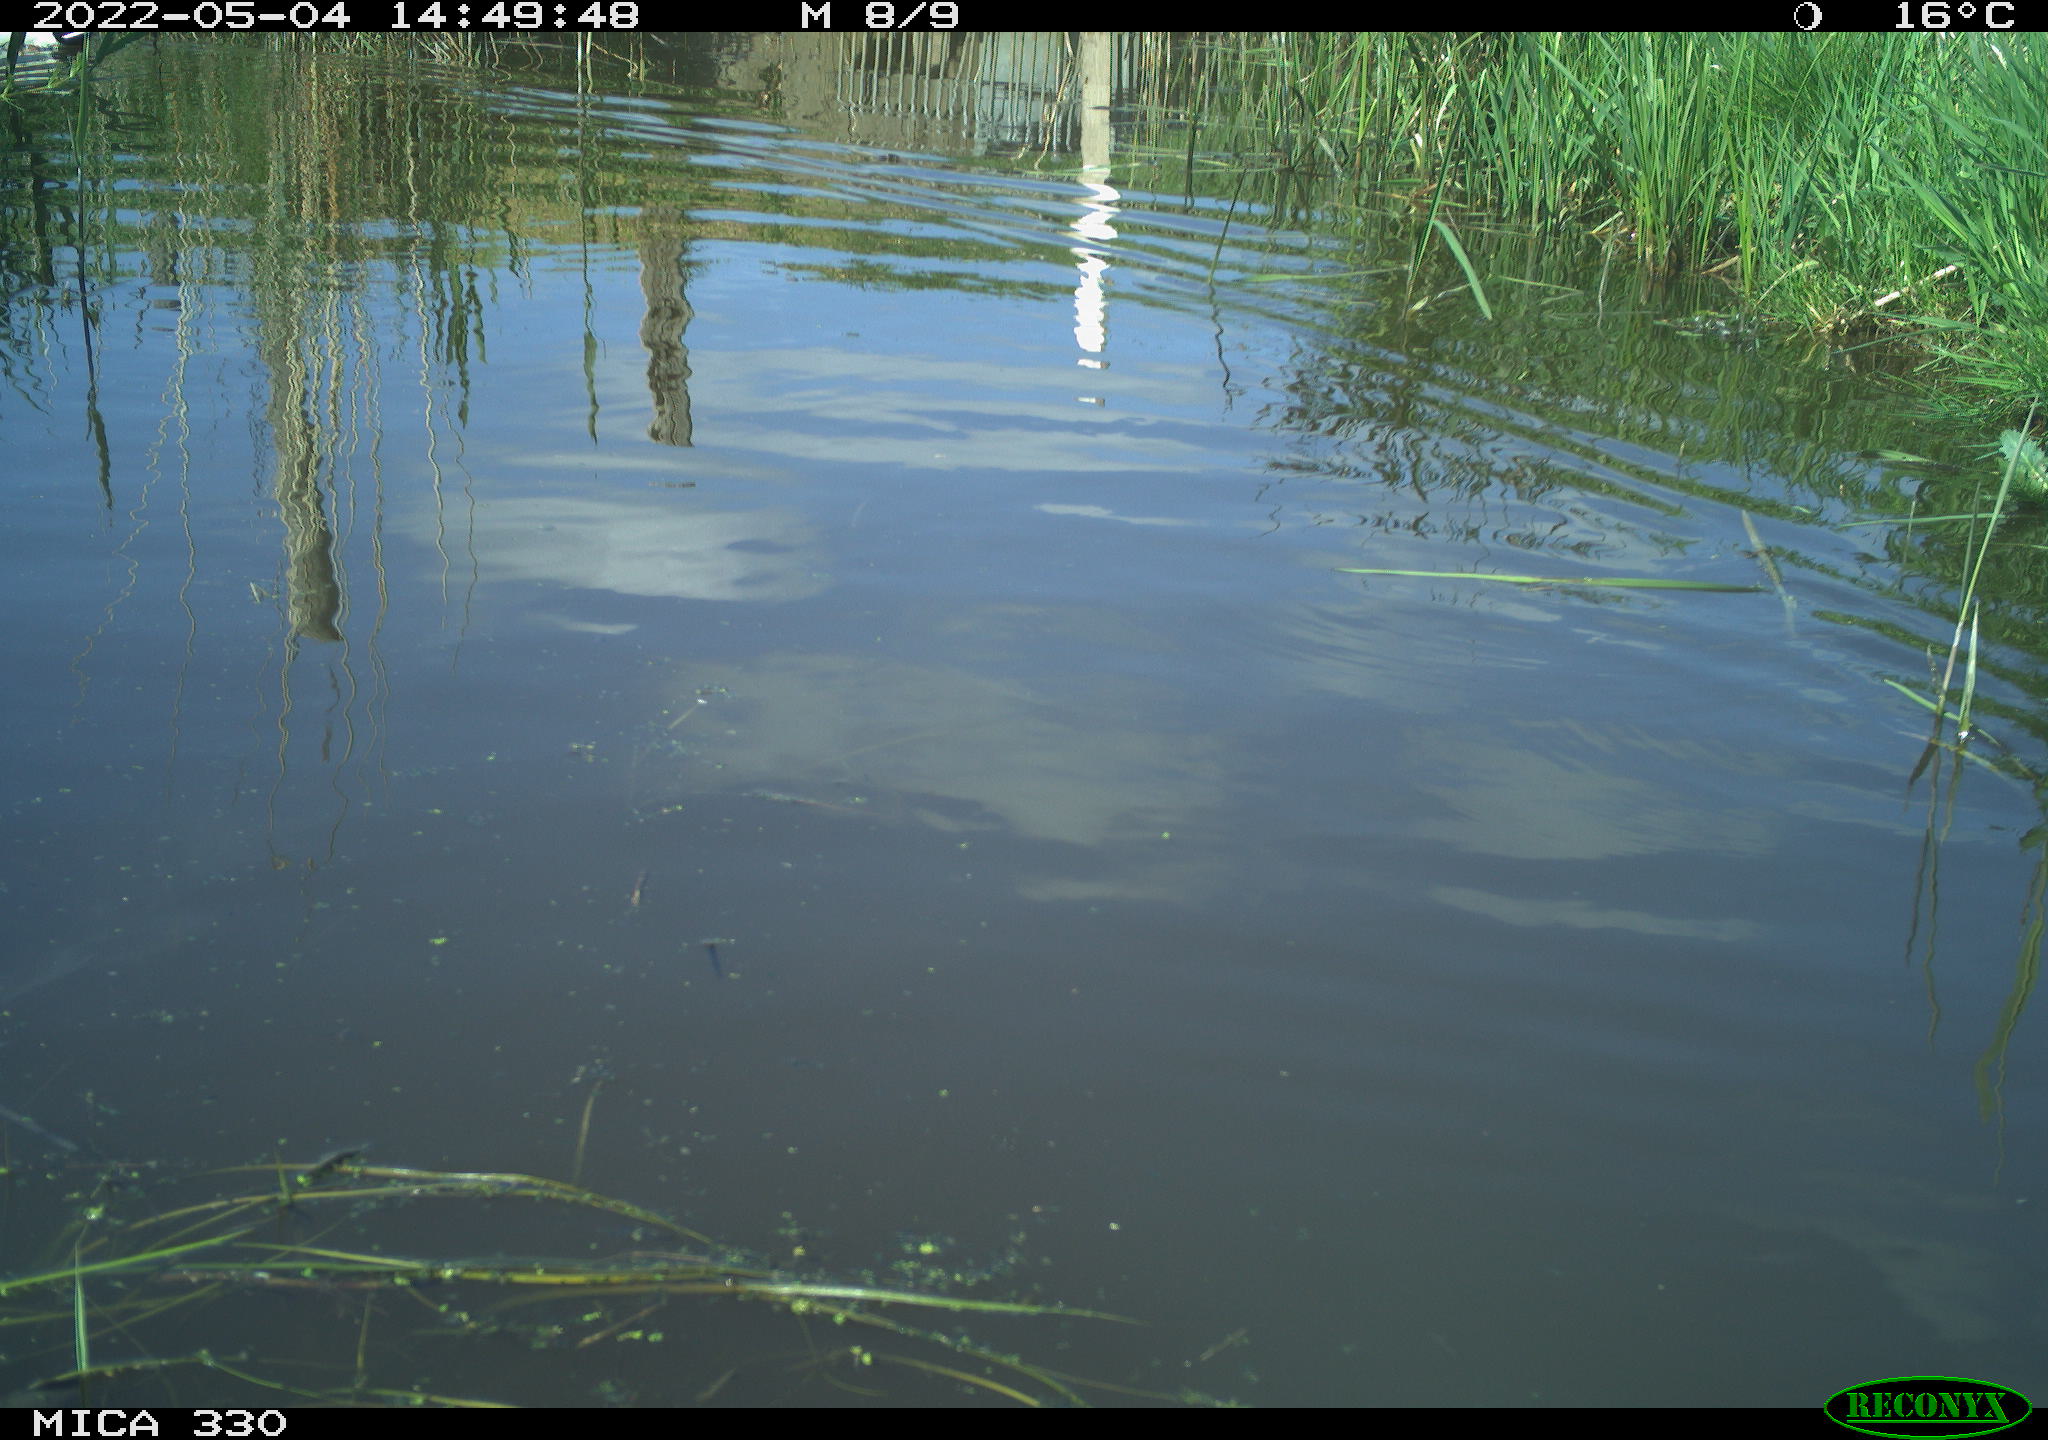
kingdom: Animalia
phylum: Chordata
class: Aves
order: Anseriformes
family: Anatidae
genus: Anas
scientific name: Anas platyrhynchos
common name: Mallard
